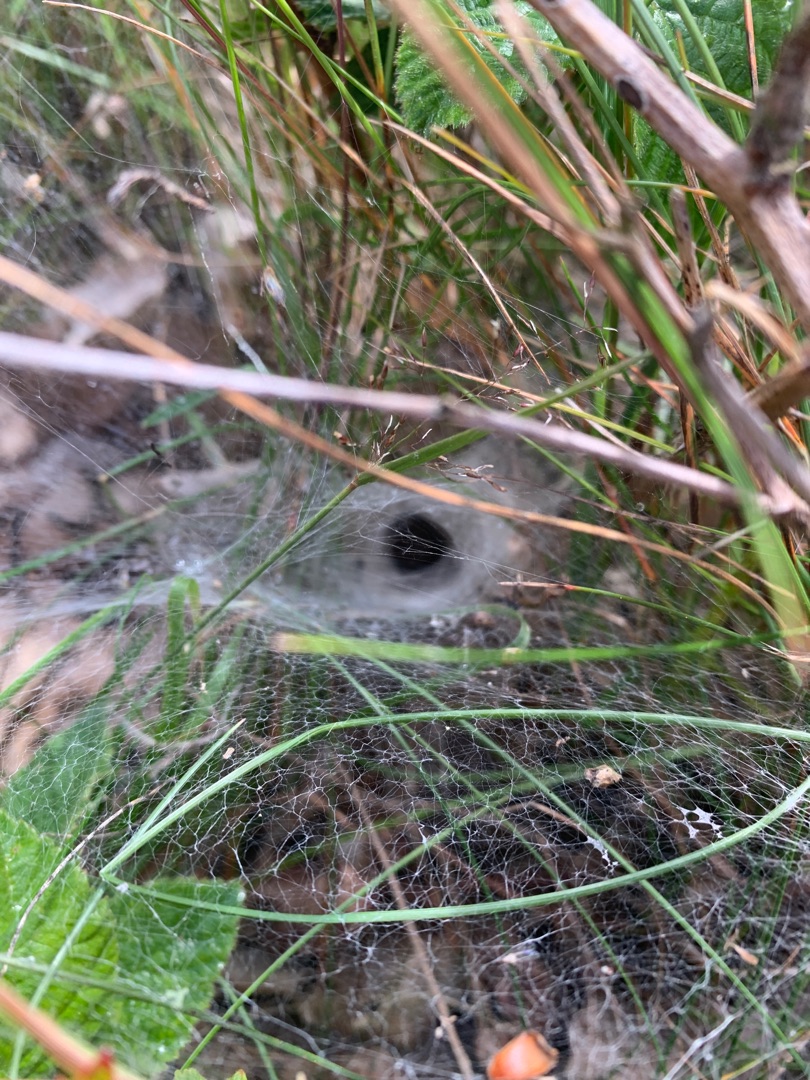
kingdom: Animalia
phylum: Arthropoda
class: Arachnida
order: Araneae
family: Agelenidae
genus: Agelena
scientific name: Agelena labyrinthica
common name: Labyrintedderkop
